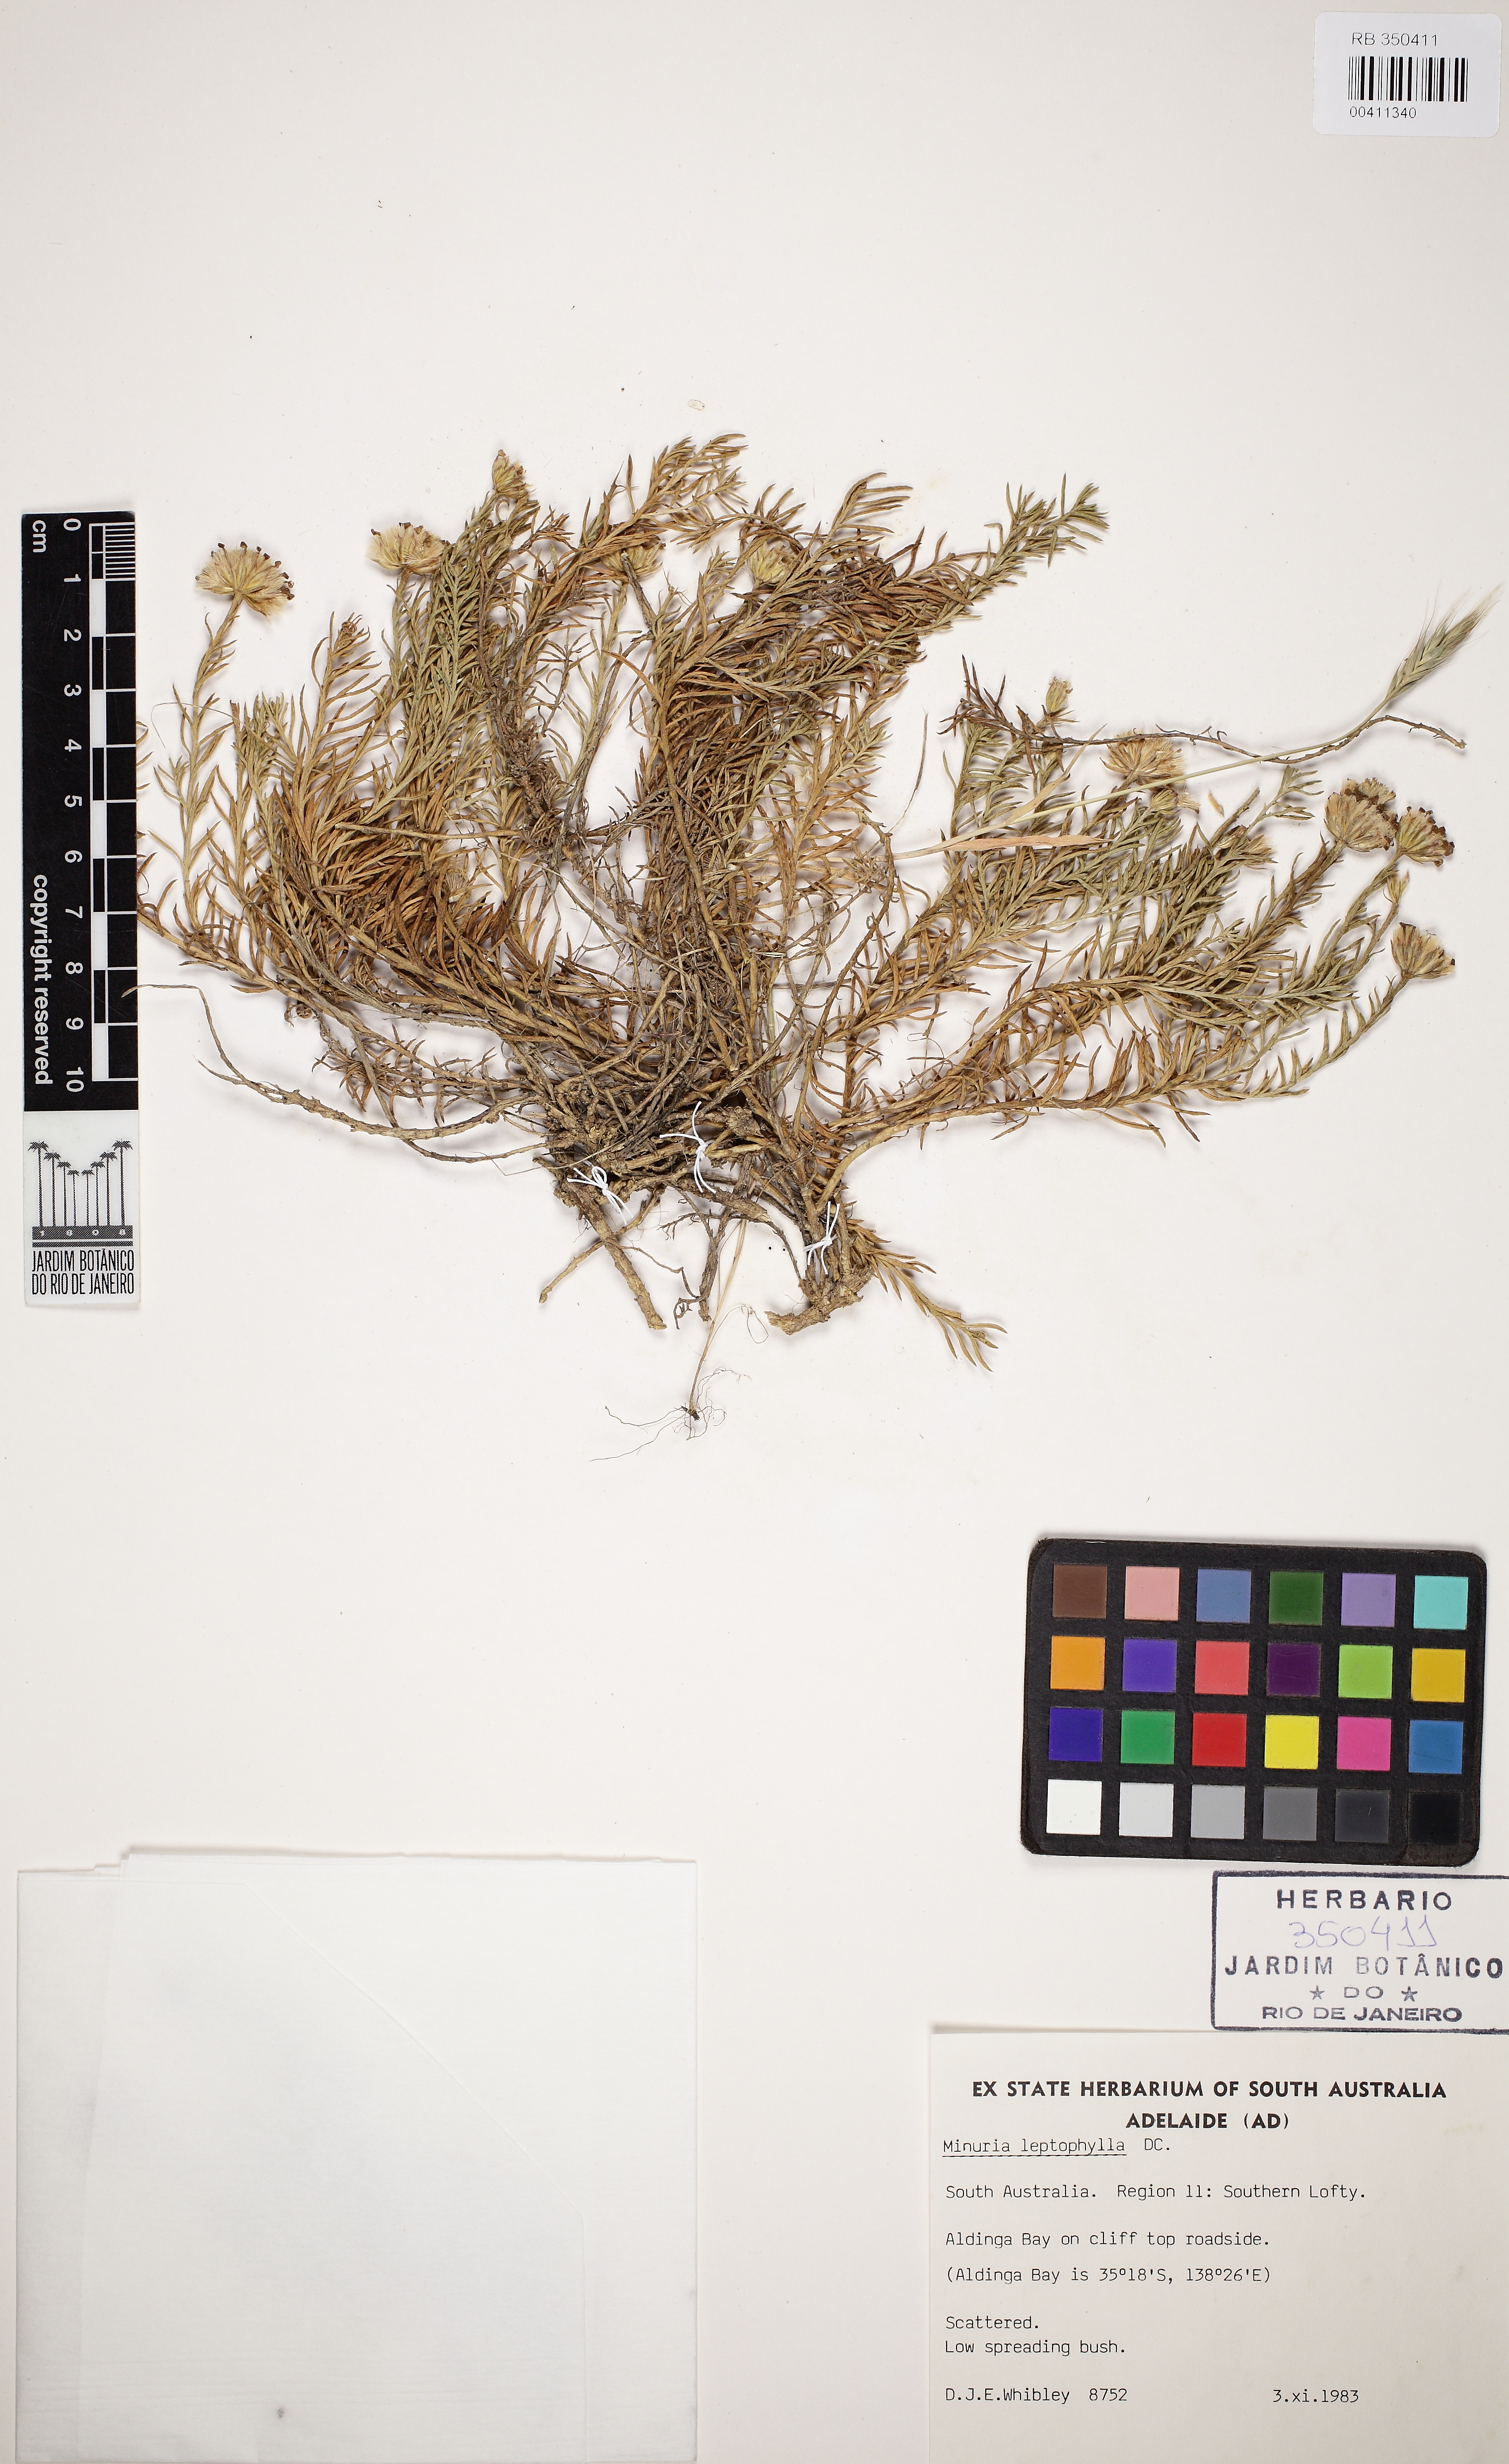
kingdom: Plantae
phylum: Tracheophyta
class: Magnoliopsida
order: Asterales
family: Asteraceae
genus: Minuria
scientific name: Minuria leptophylla
